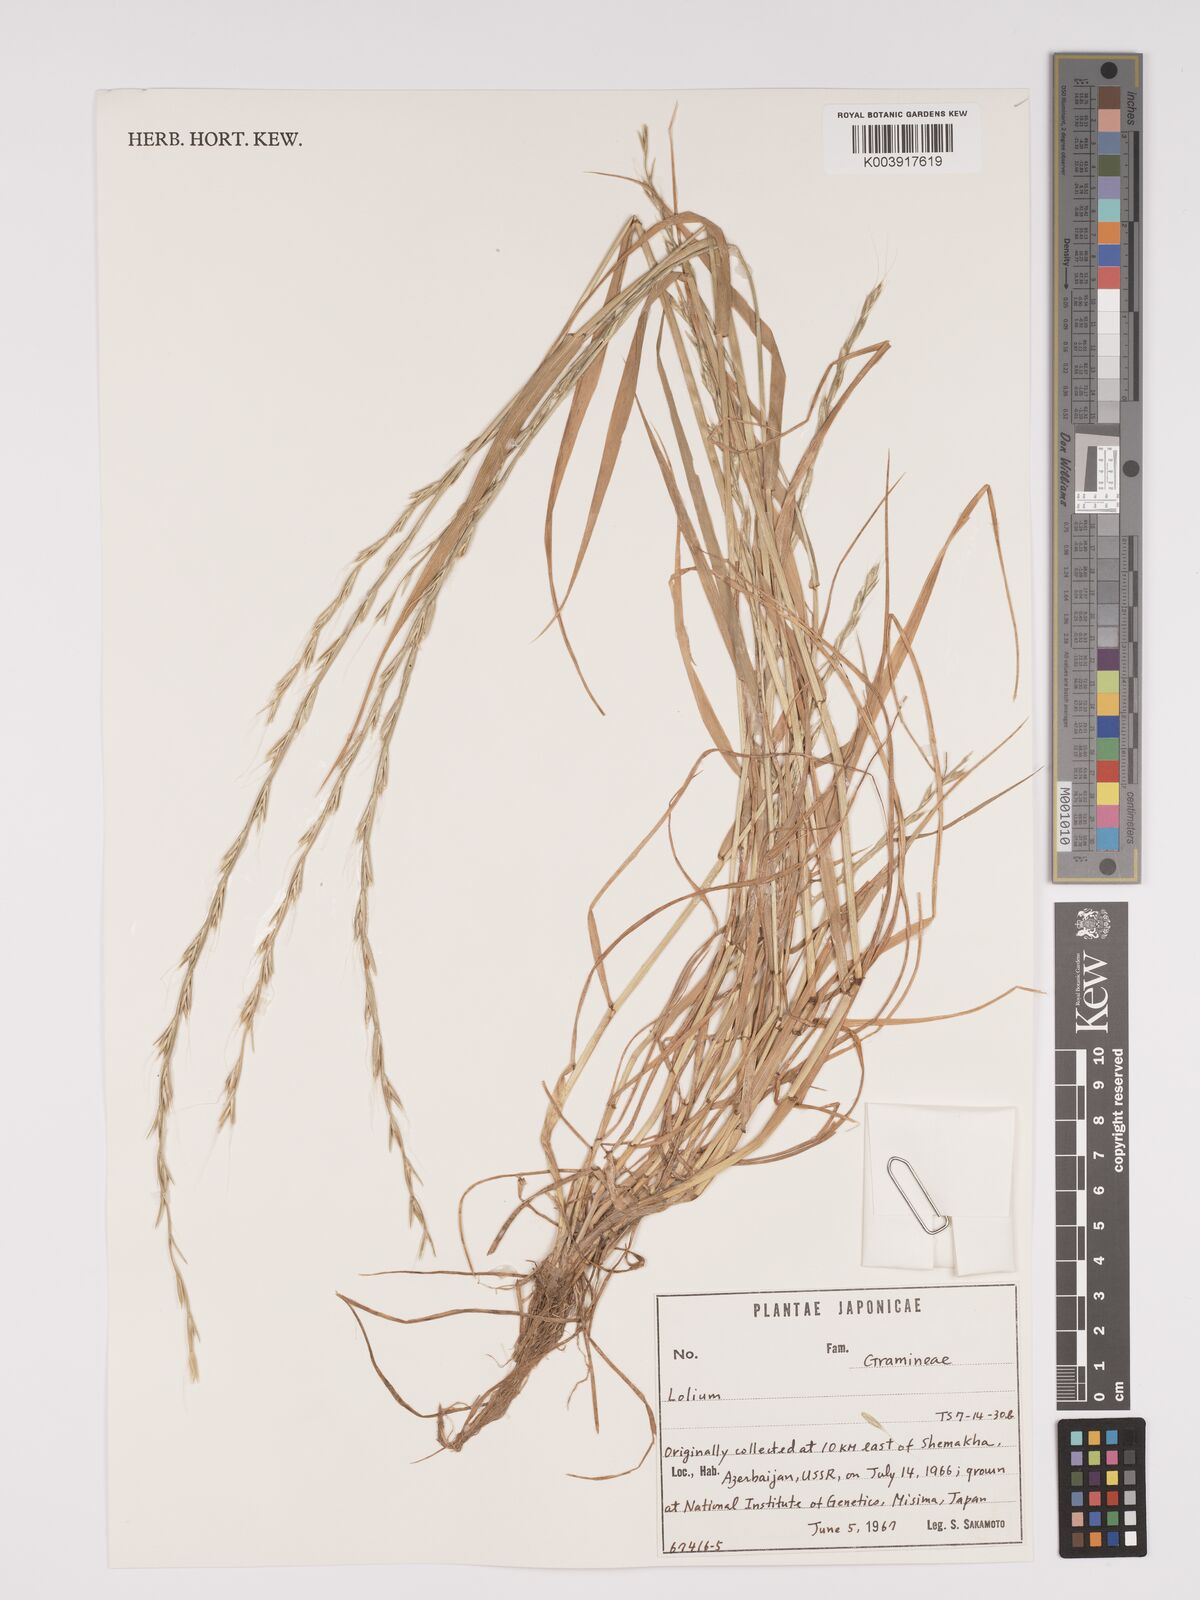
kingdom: Plantae
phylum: Tracheophyta
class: Liliopsida
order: Poales
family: Poaceae
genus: Lolium
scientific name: Lolium
